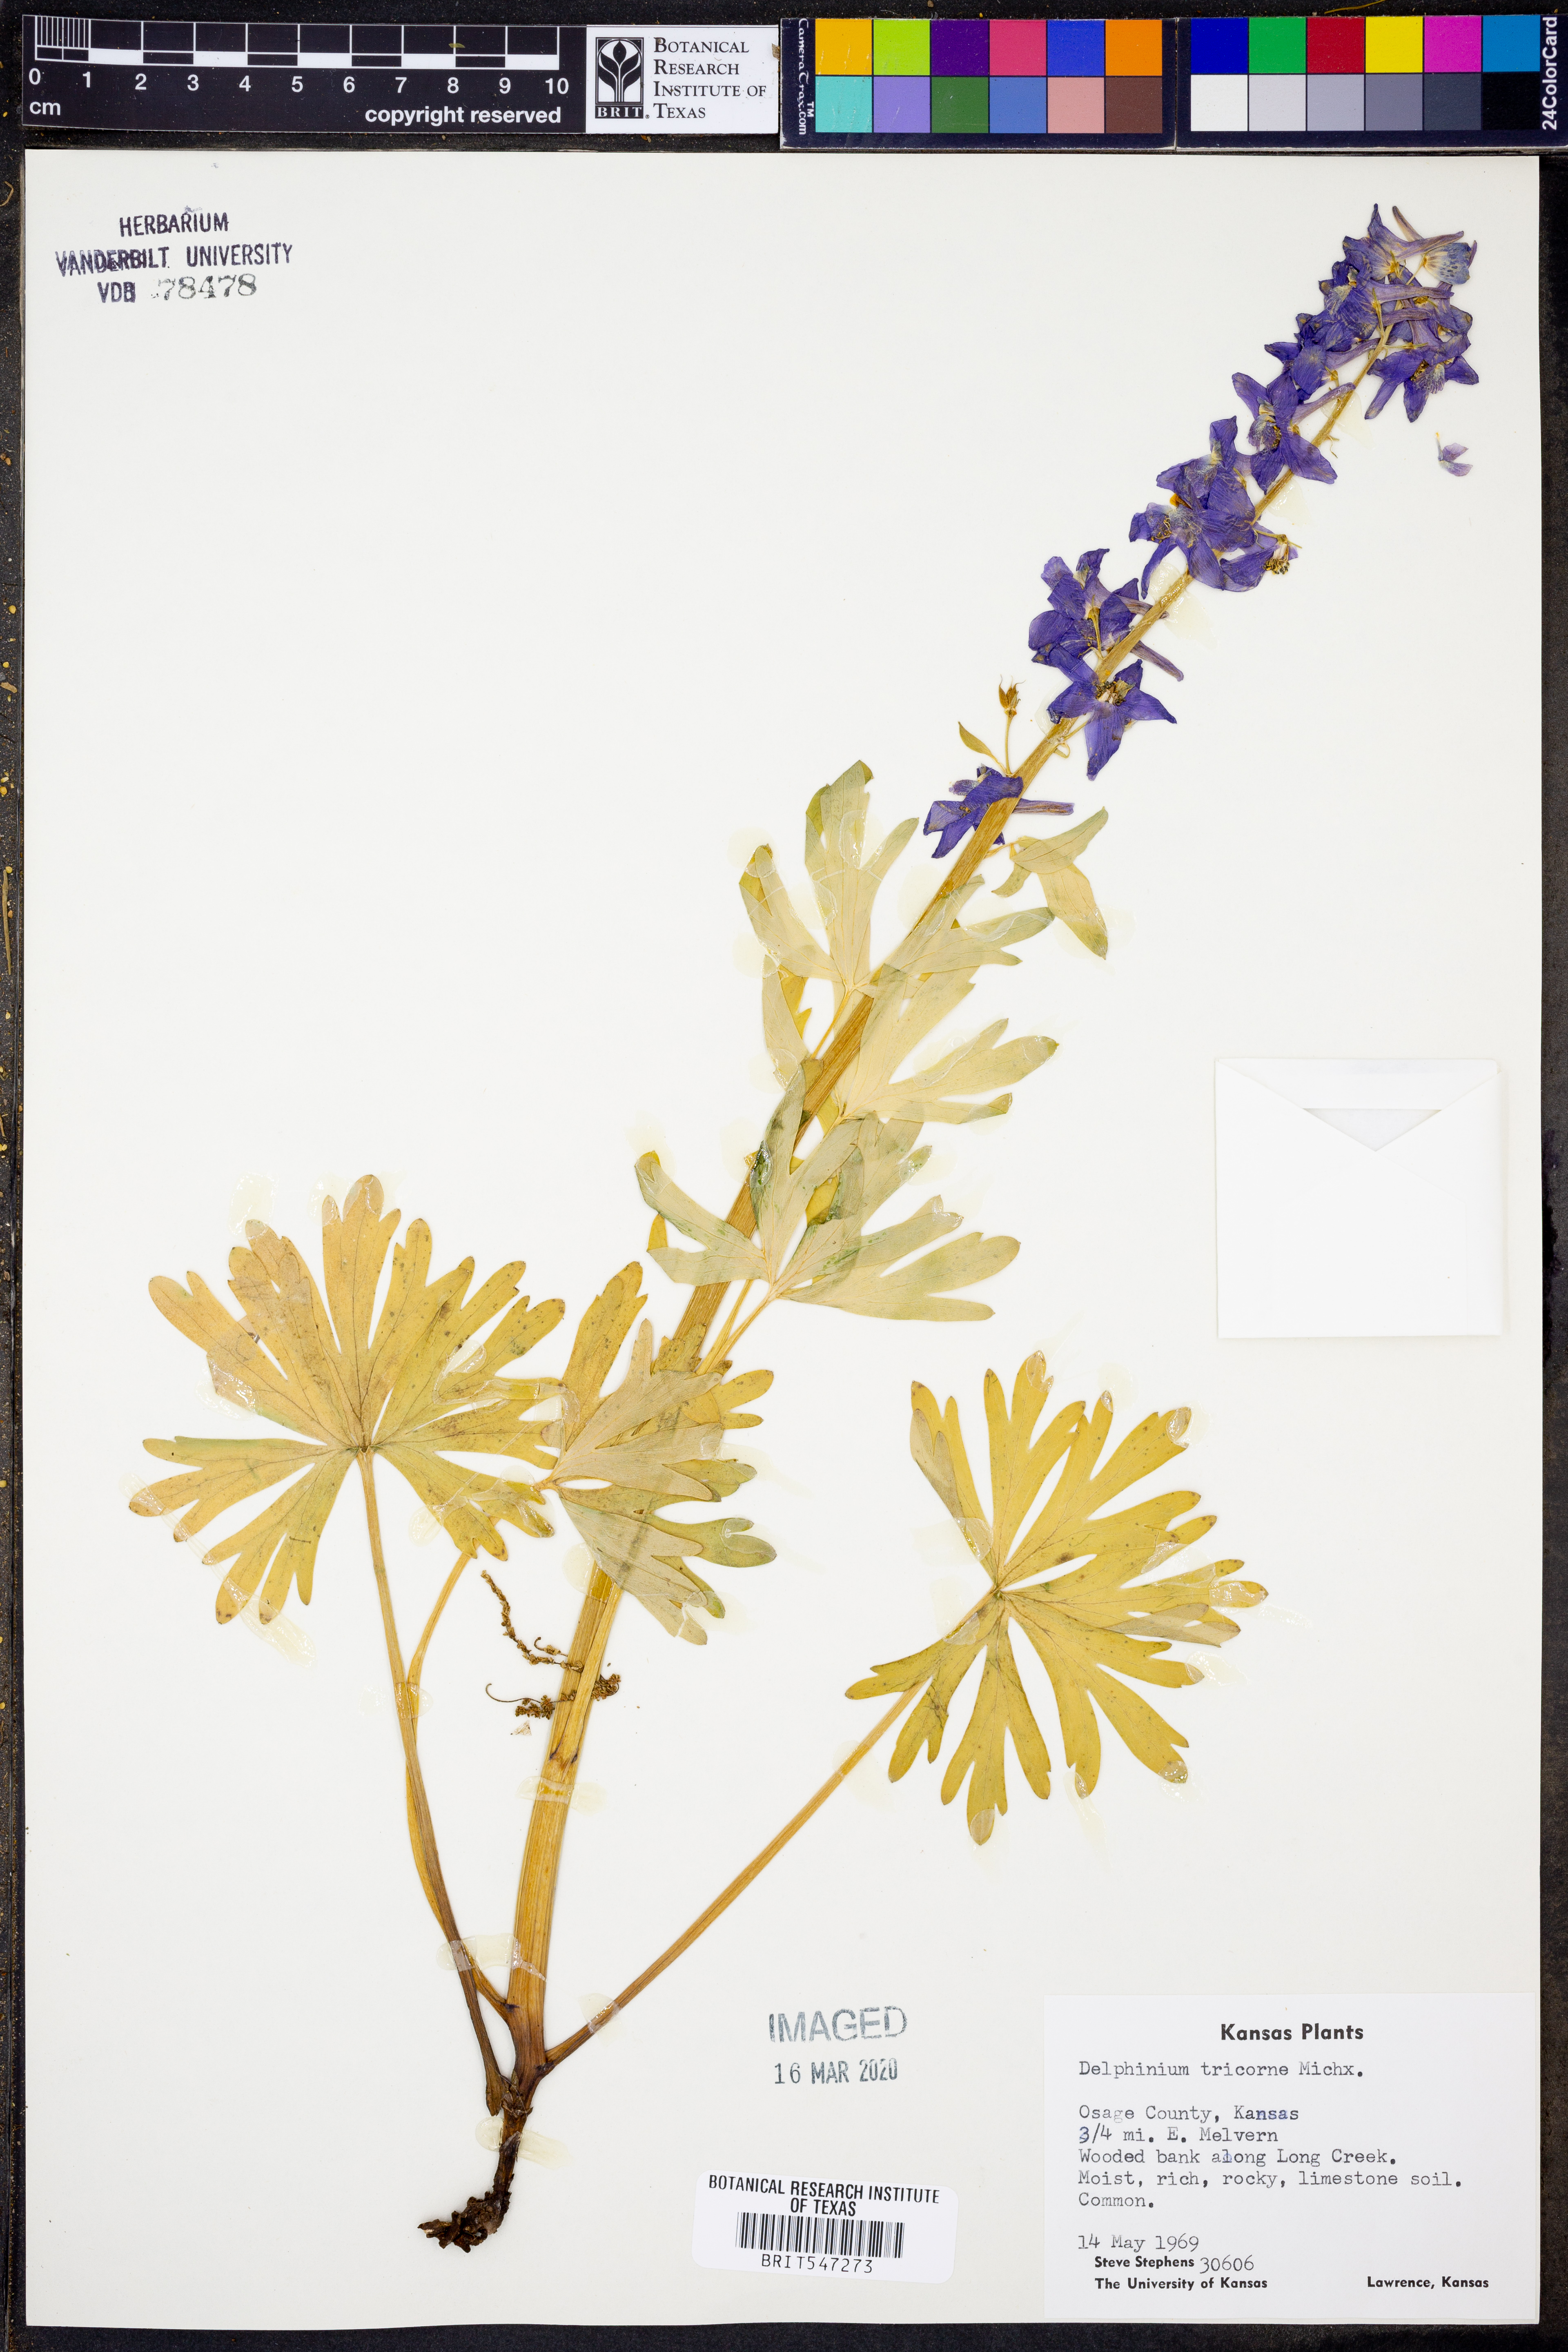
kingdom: Plantae
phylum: Tracheophyta
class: Magnoliopsida
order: Ranunculales
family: Ranunculaceae
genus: Delphinium
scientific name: Delphinium tricorne
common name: Dwarf larkspur
